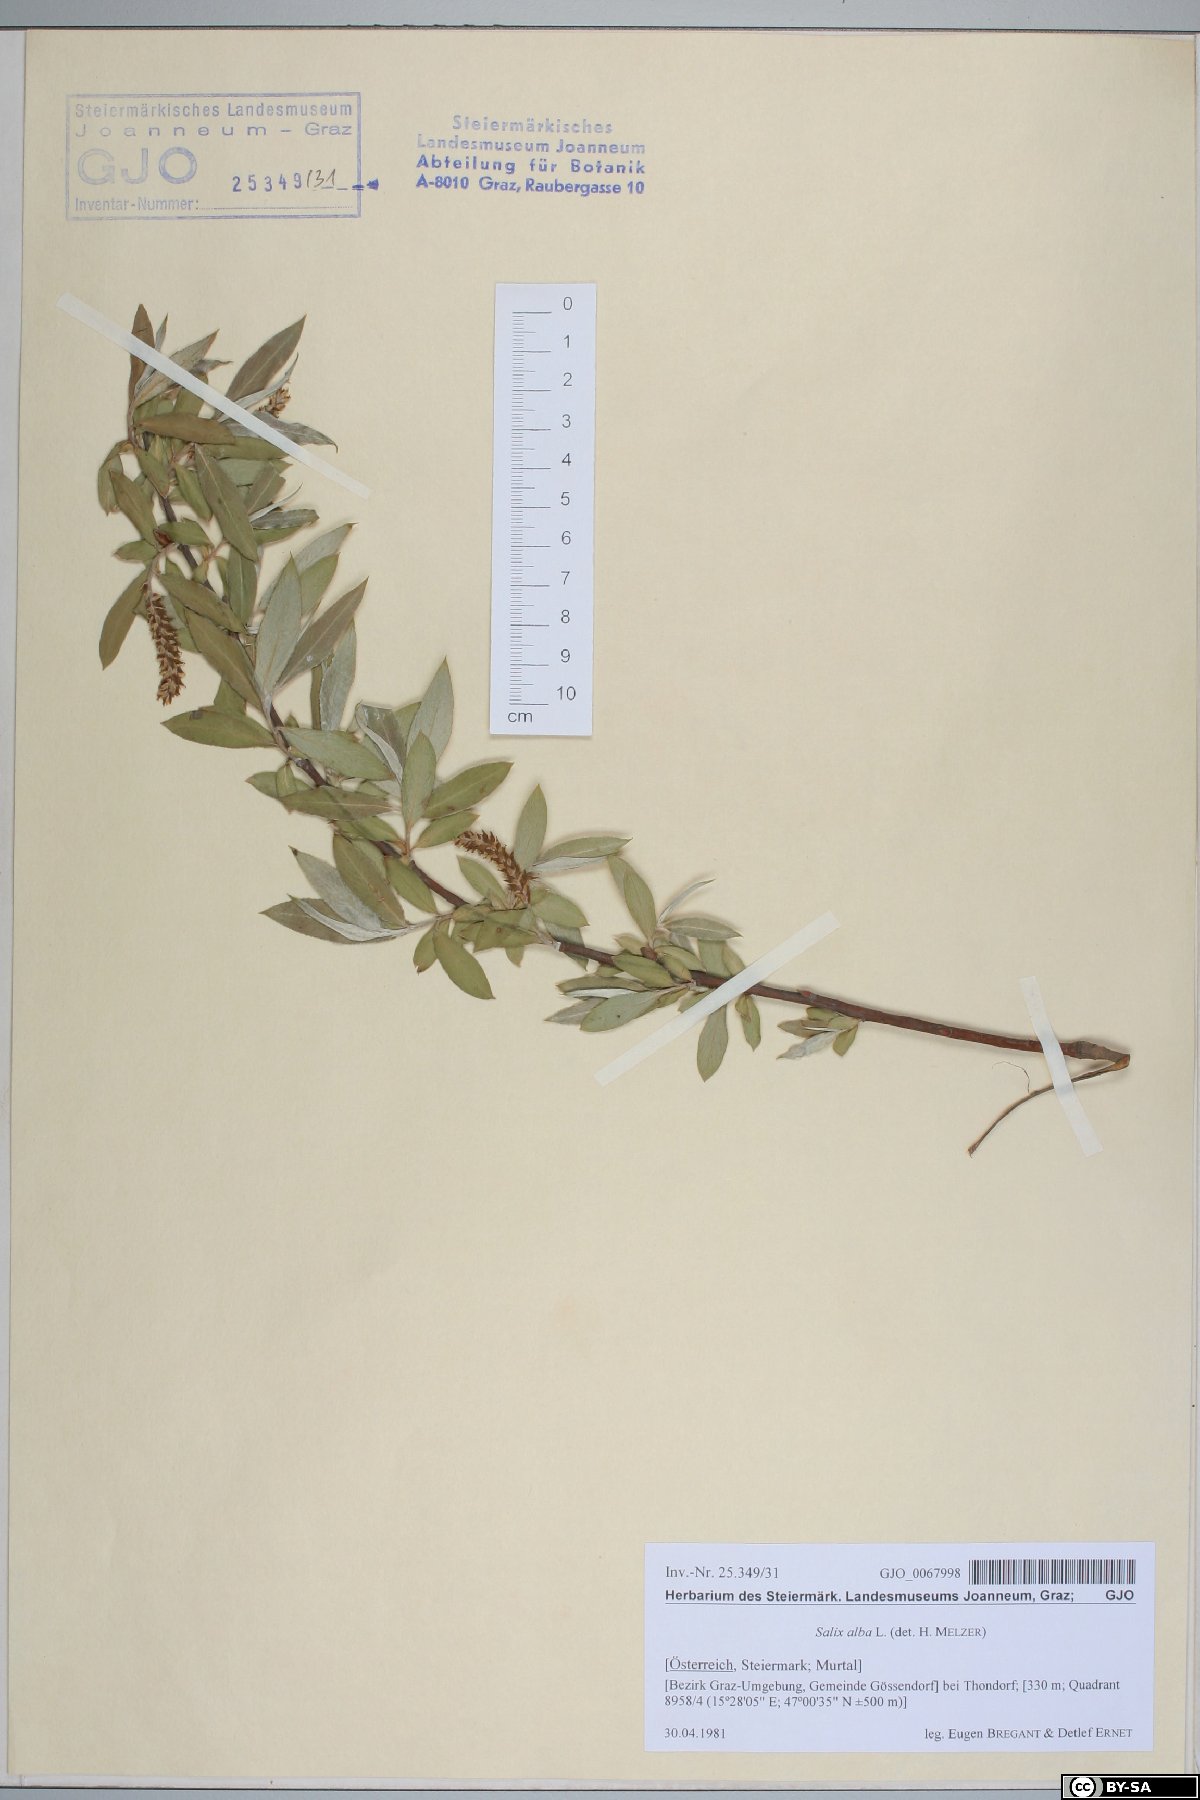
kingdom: Plantae
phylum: Tracheophyta
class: Magnoliopsida
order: Malpighiales
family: Salicaceae
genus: Salix
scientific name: Salix alba
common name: White willow
